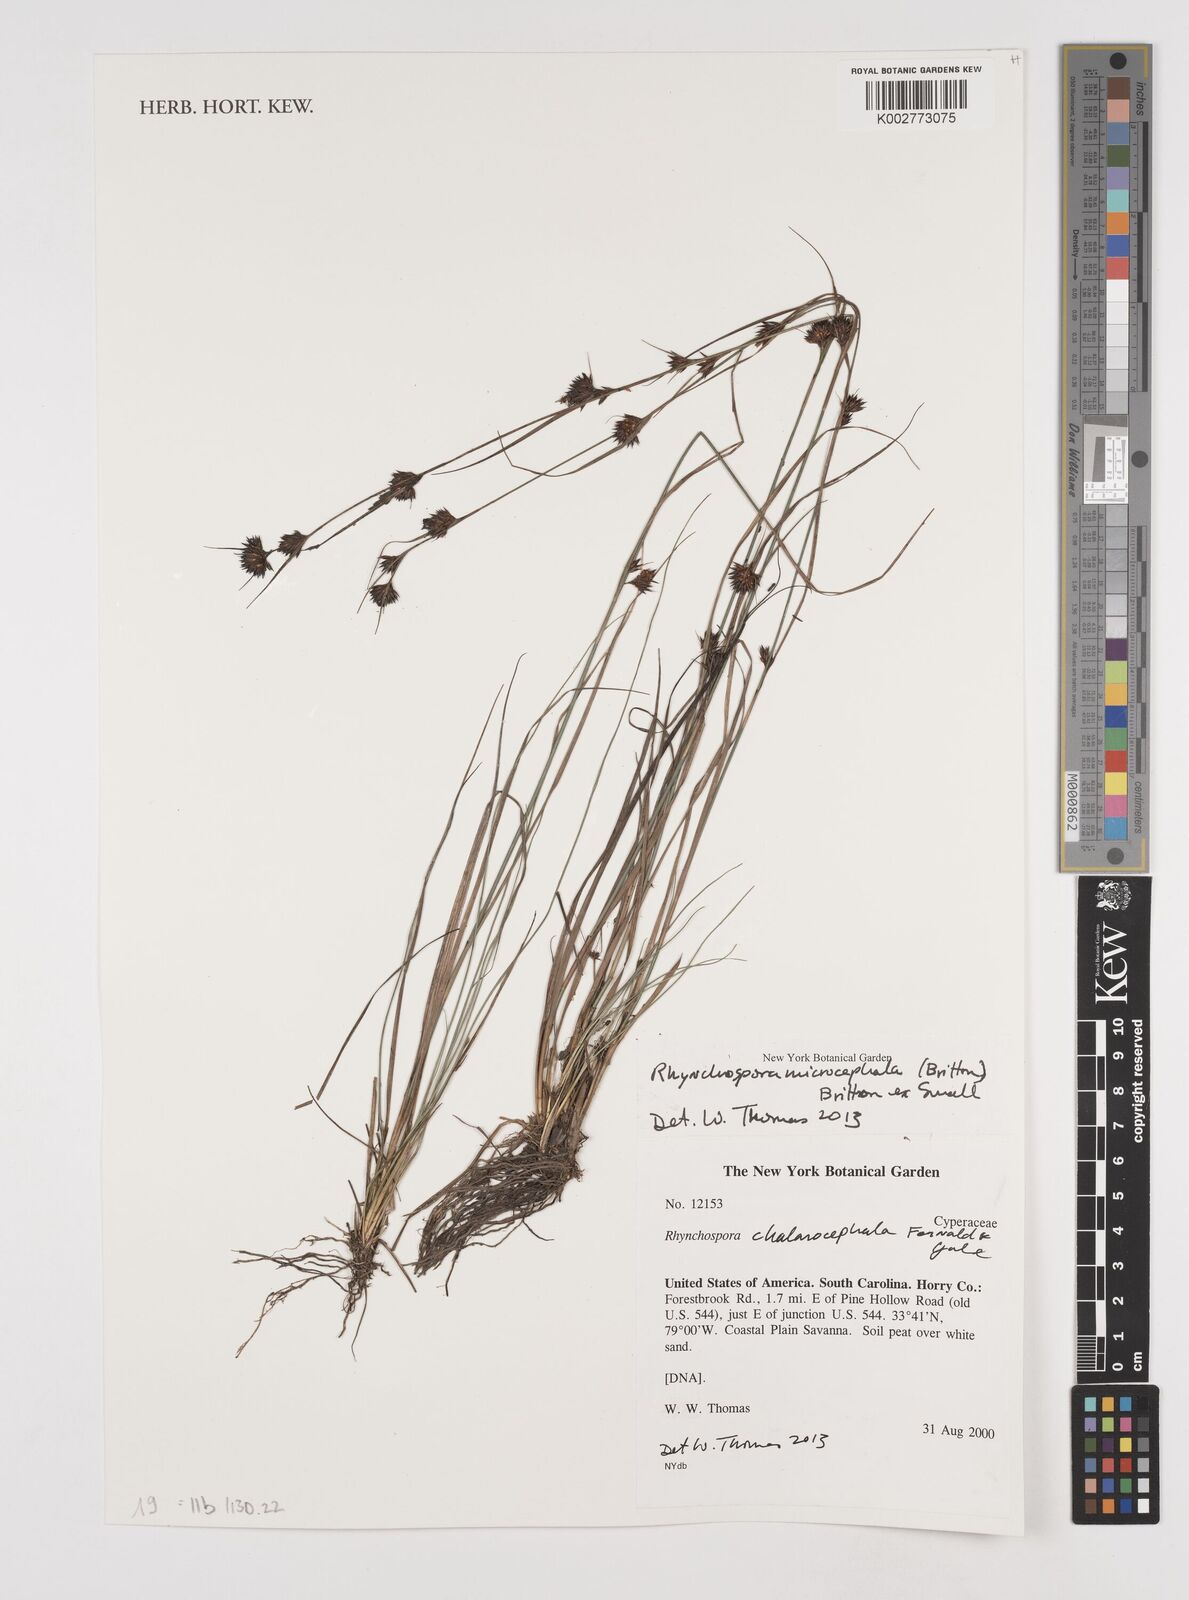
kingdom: Plantae
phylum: Tracheophyta
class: Liliopsida
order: Poales
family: Cyperaceae
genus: Rhynchospora
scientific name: Rhynchospora microcephala
